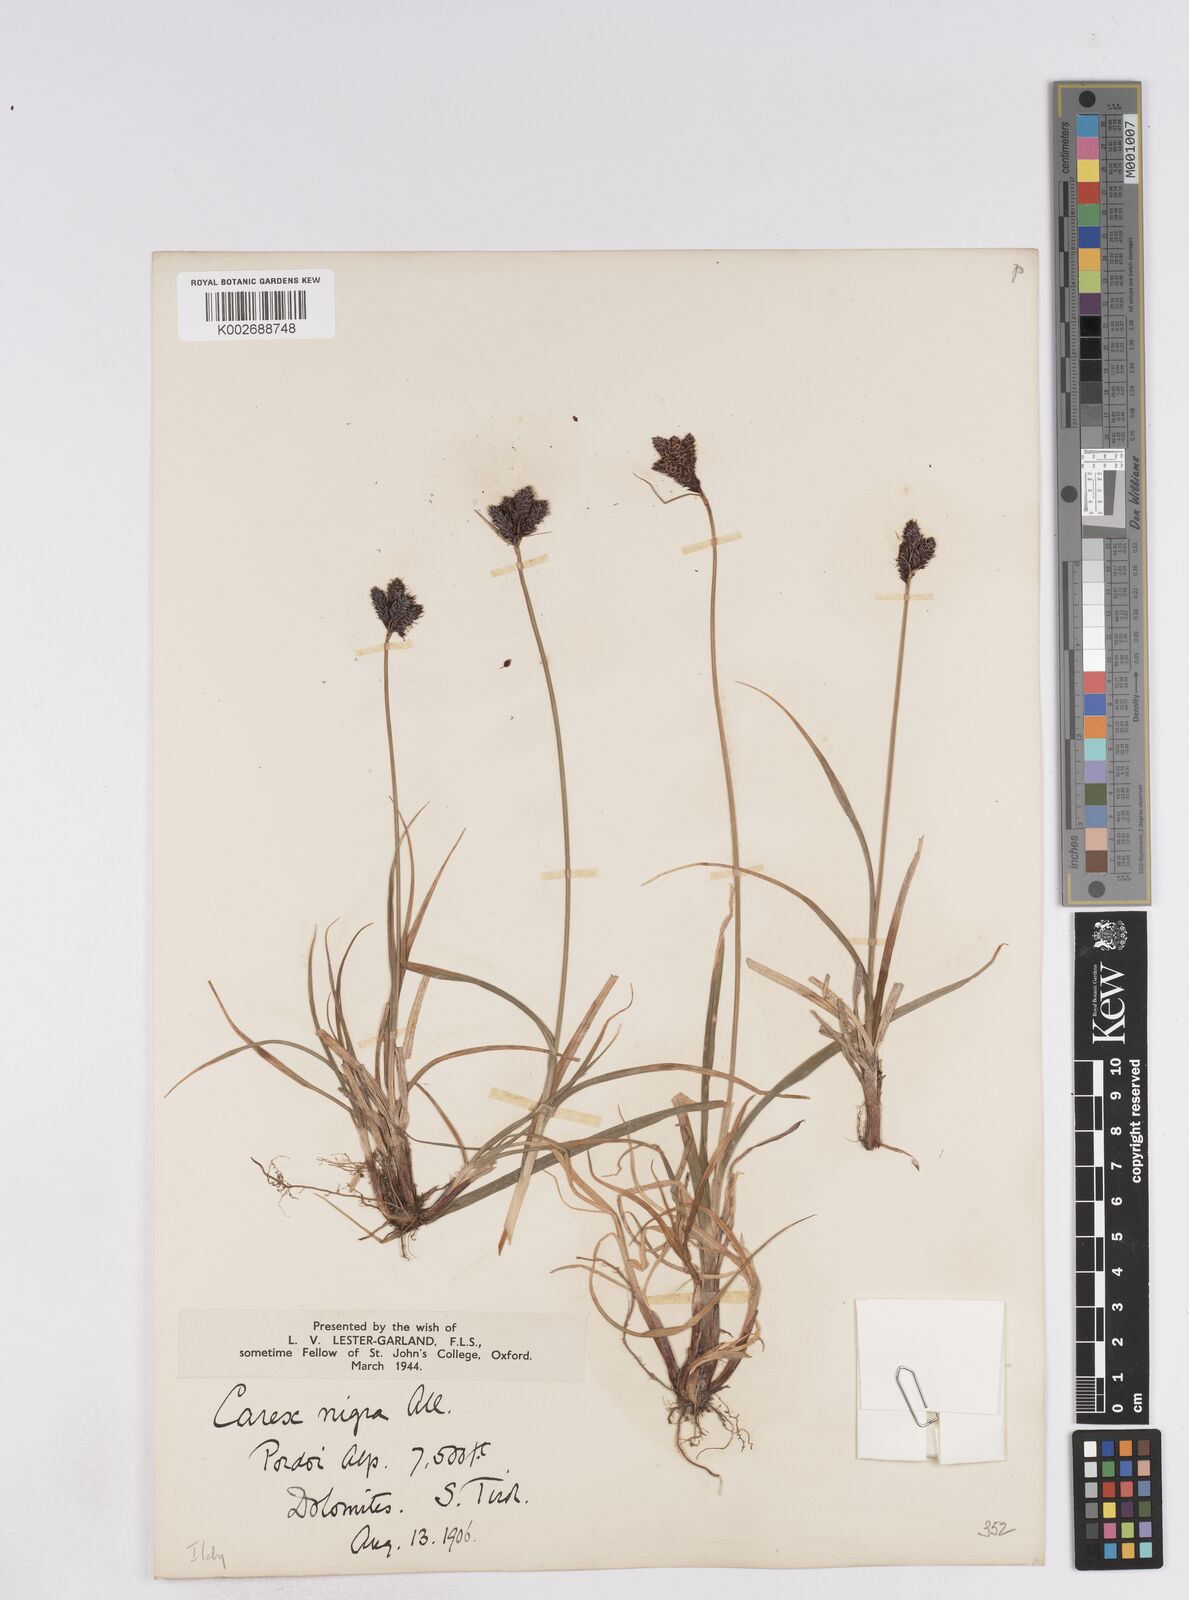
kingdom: Plantae
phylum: Tracheophyta
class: Liliopsida
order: Poales
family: Cyperaceae
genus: Carex
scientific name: Carex parviflora
